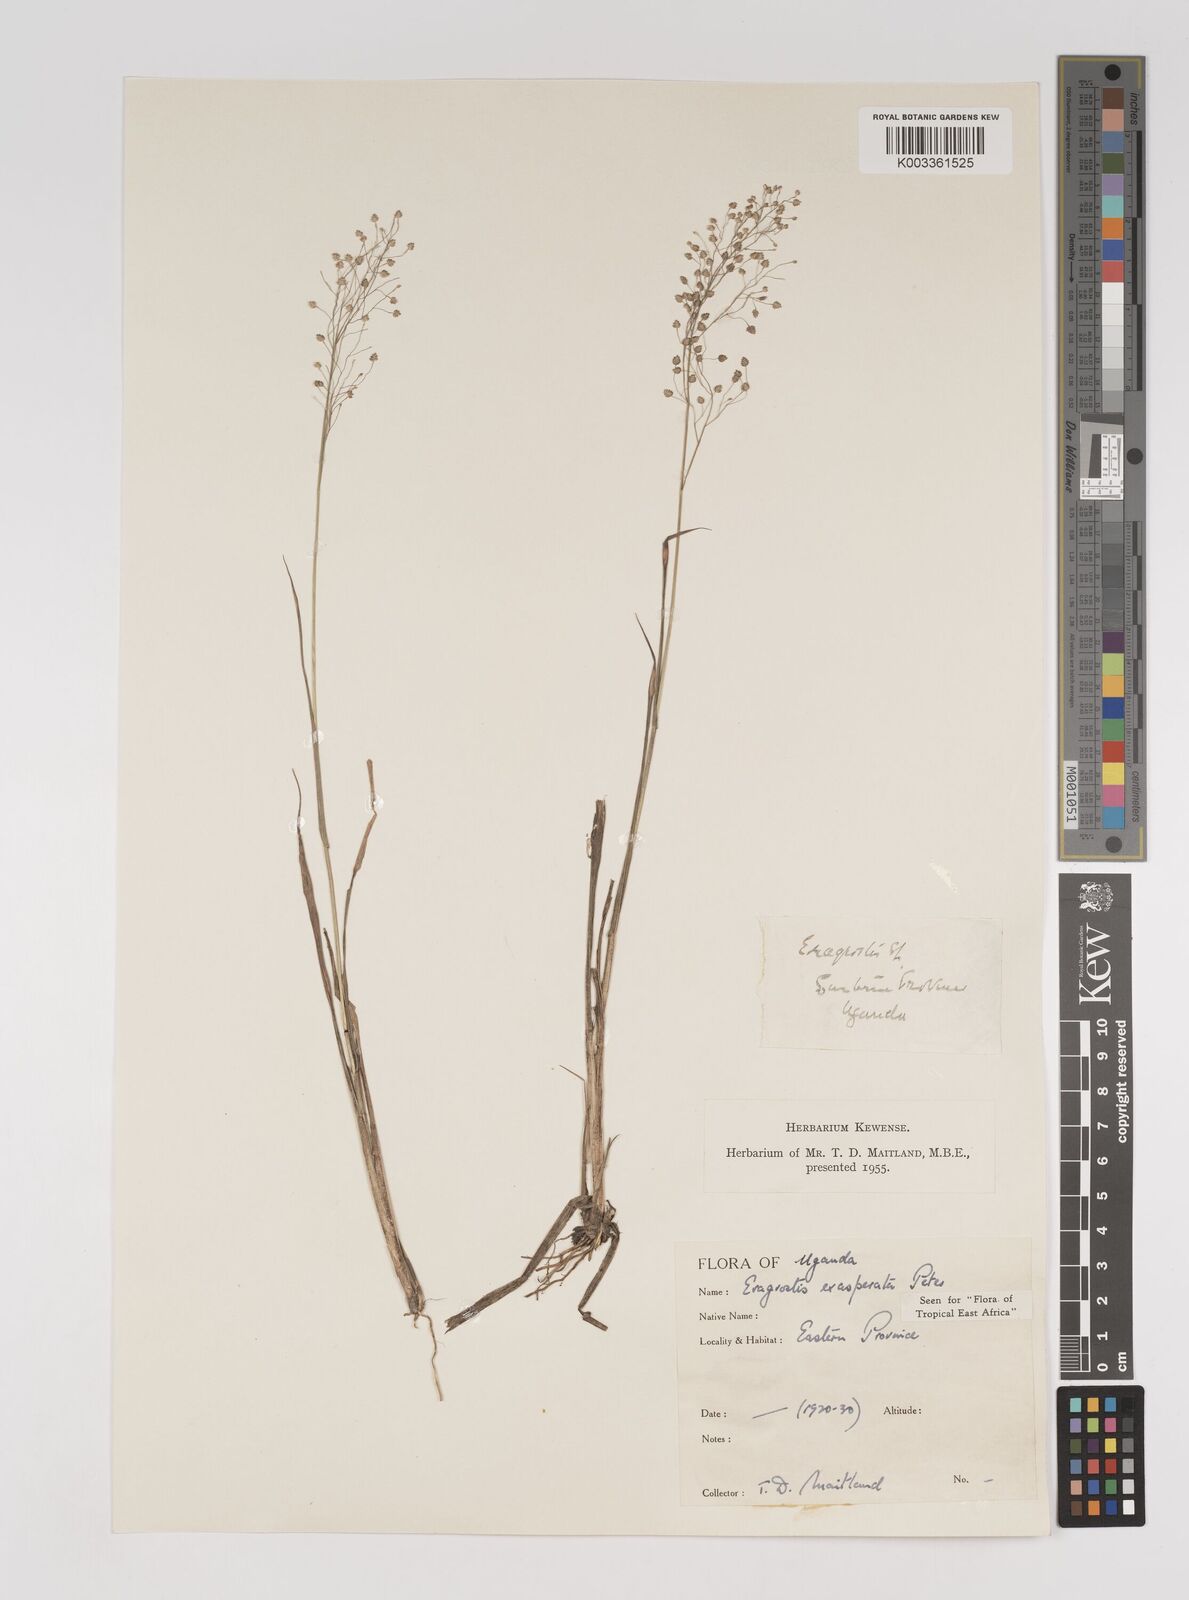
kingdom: Plantae
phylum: Tracheophyta
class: Liliopsida
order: Poales
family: Poaceae
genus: Eragrostis
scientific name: Eragrostis exasperata
